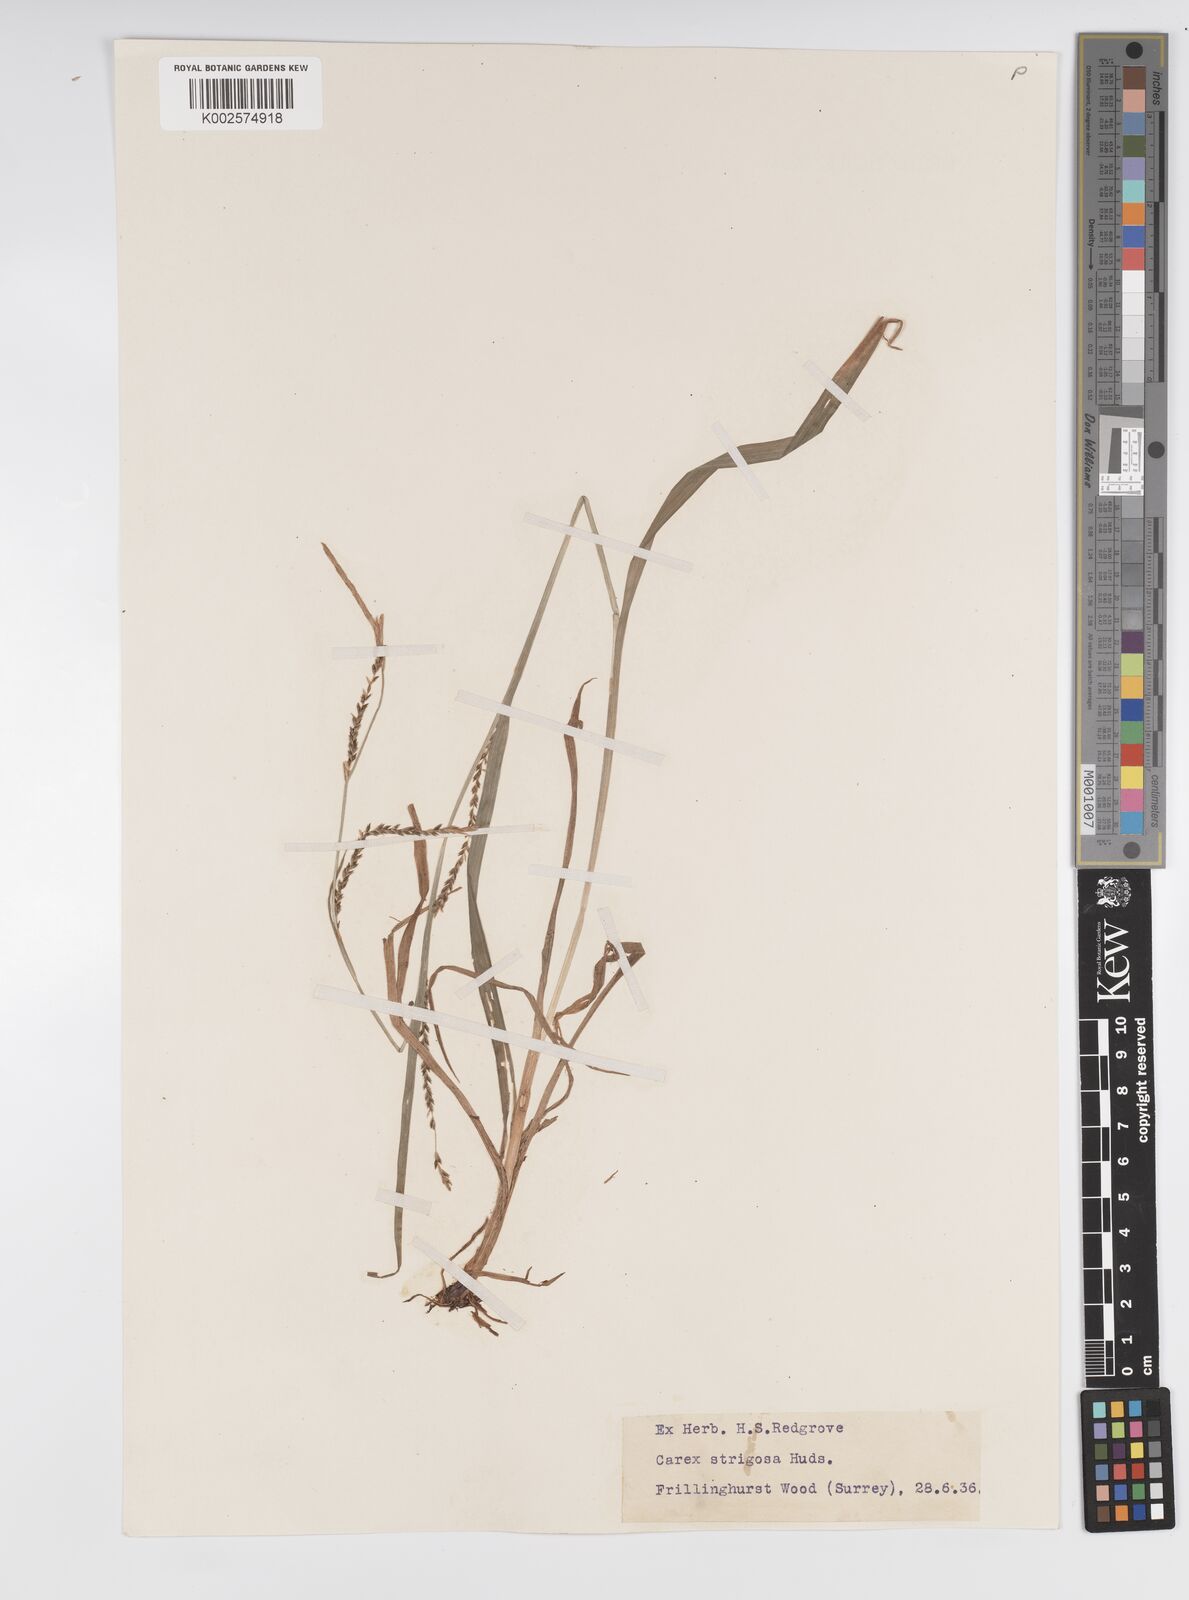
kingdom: Plantae
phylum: Tracheophyta
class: Liliopsida
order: Poales
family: Cyperaceae
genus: Carex
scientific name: Carex strigosa
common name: Thin-spiked wood-sedge
